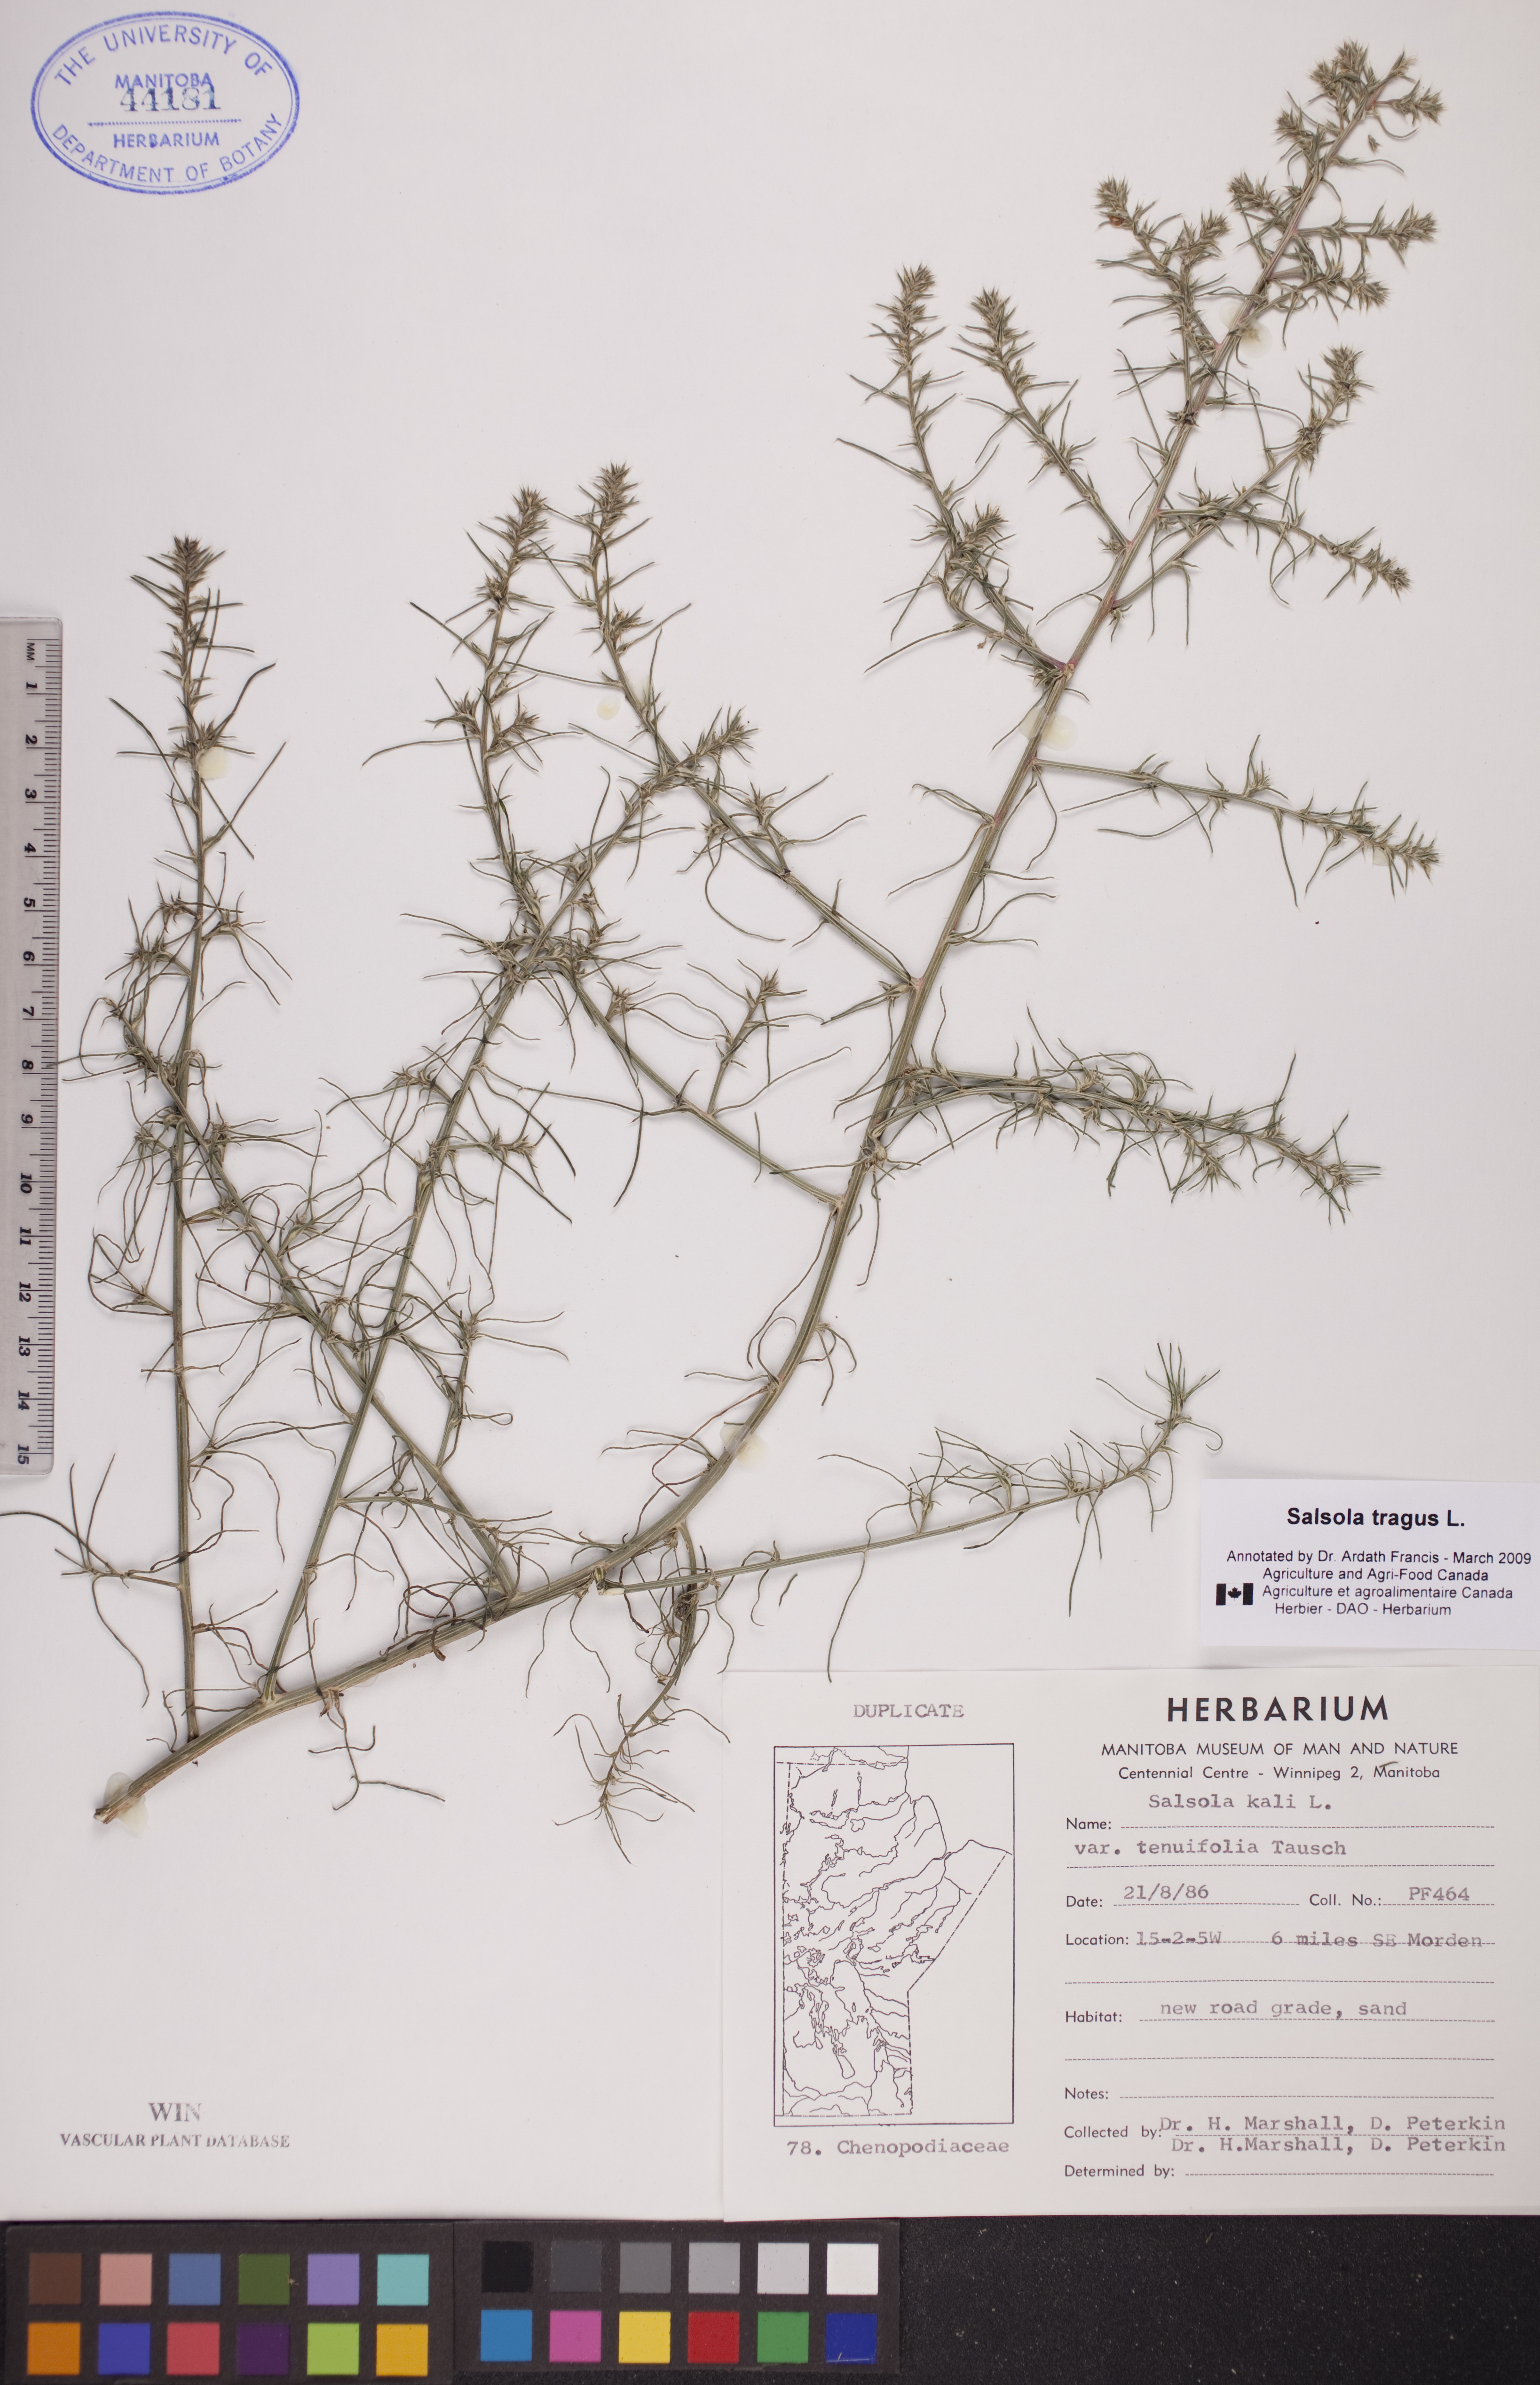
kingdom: Plantae
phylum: Tracheophyta
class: Magnoliopsida
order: Caryophyllales
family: Amaranthaceae
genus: Salsola
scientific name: Salsola tragus
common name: Prickly russian thistle
